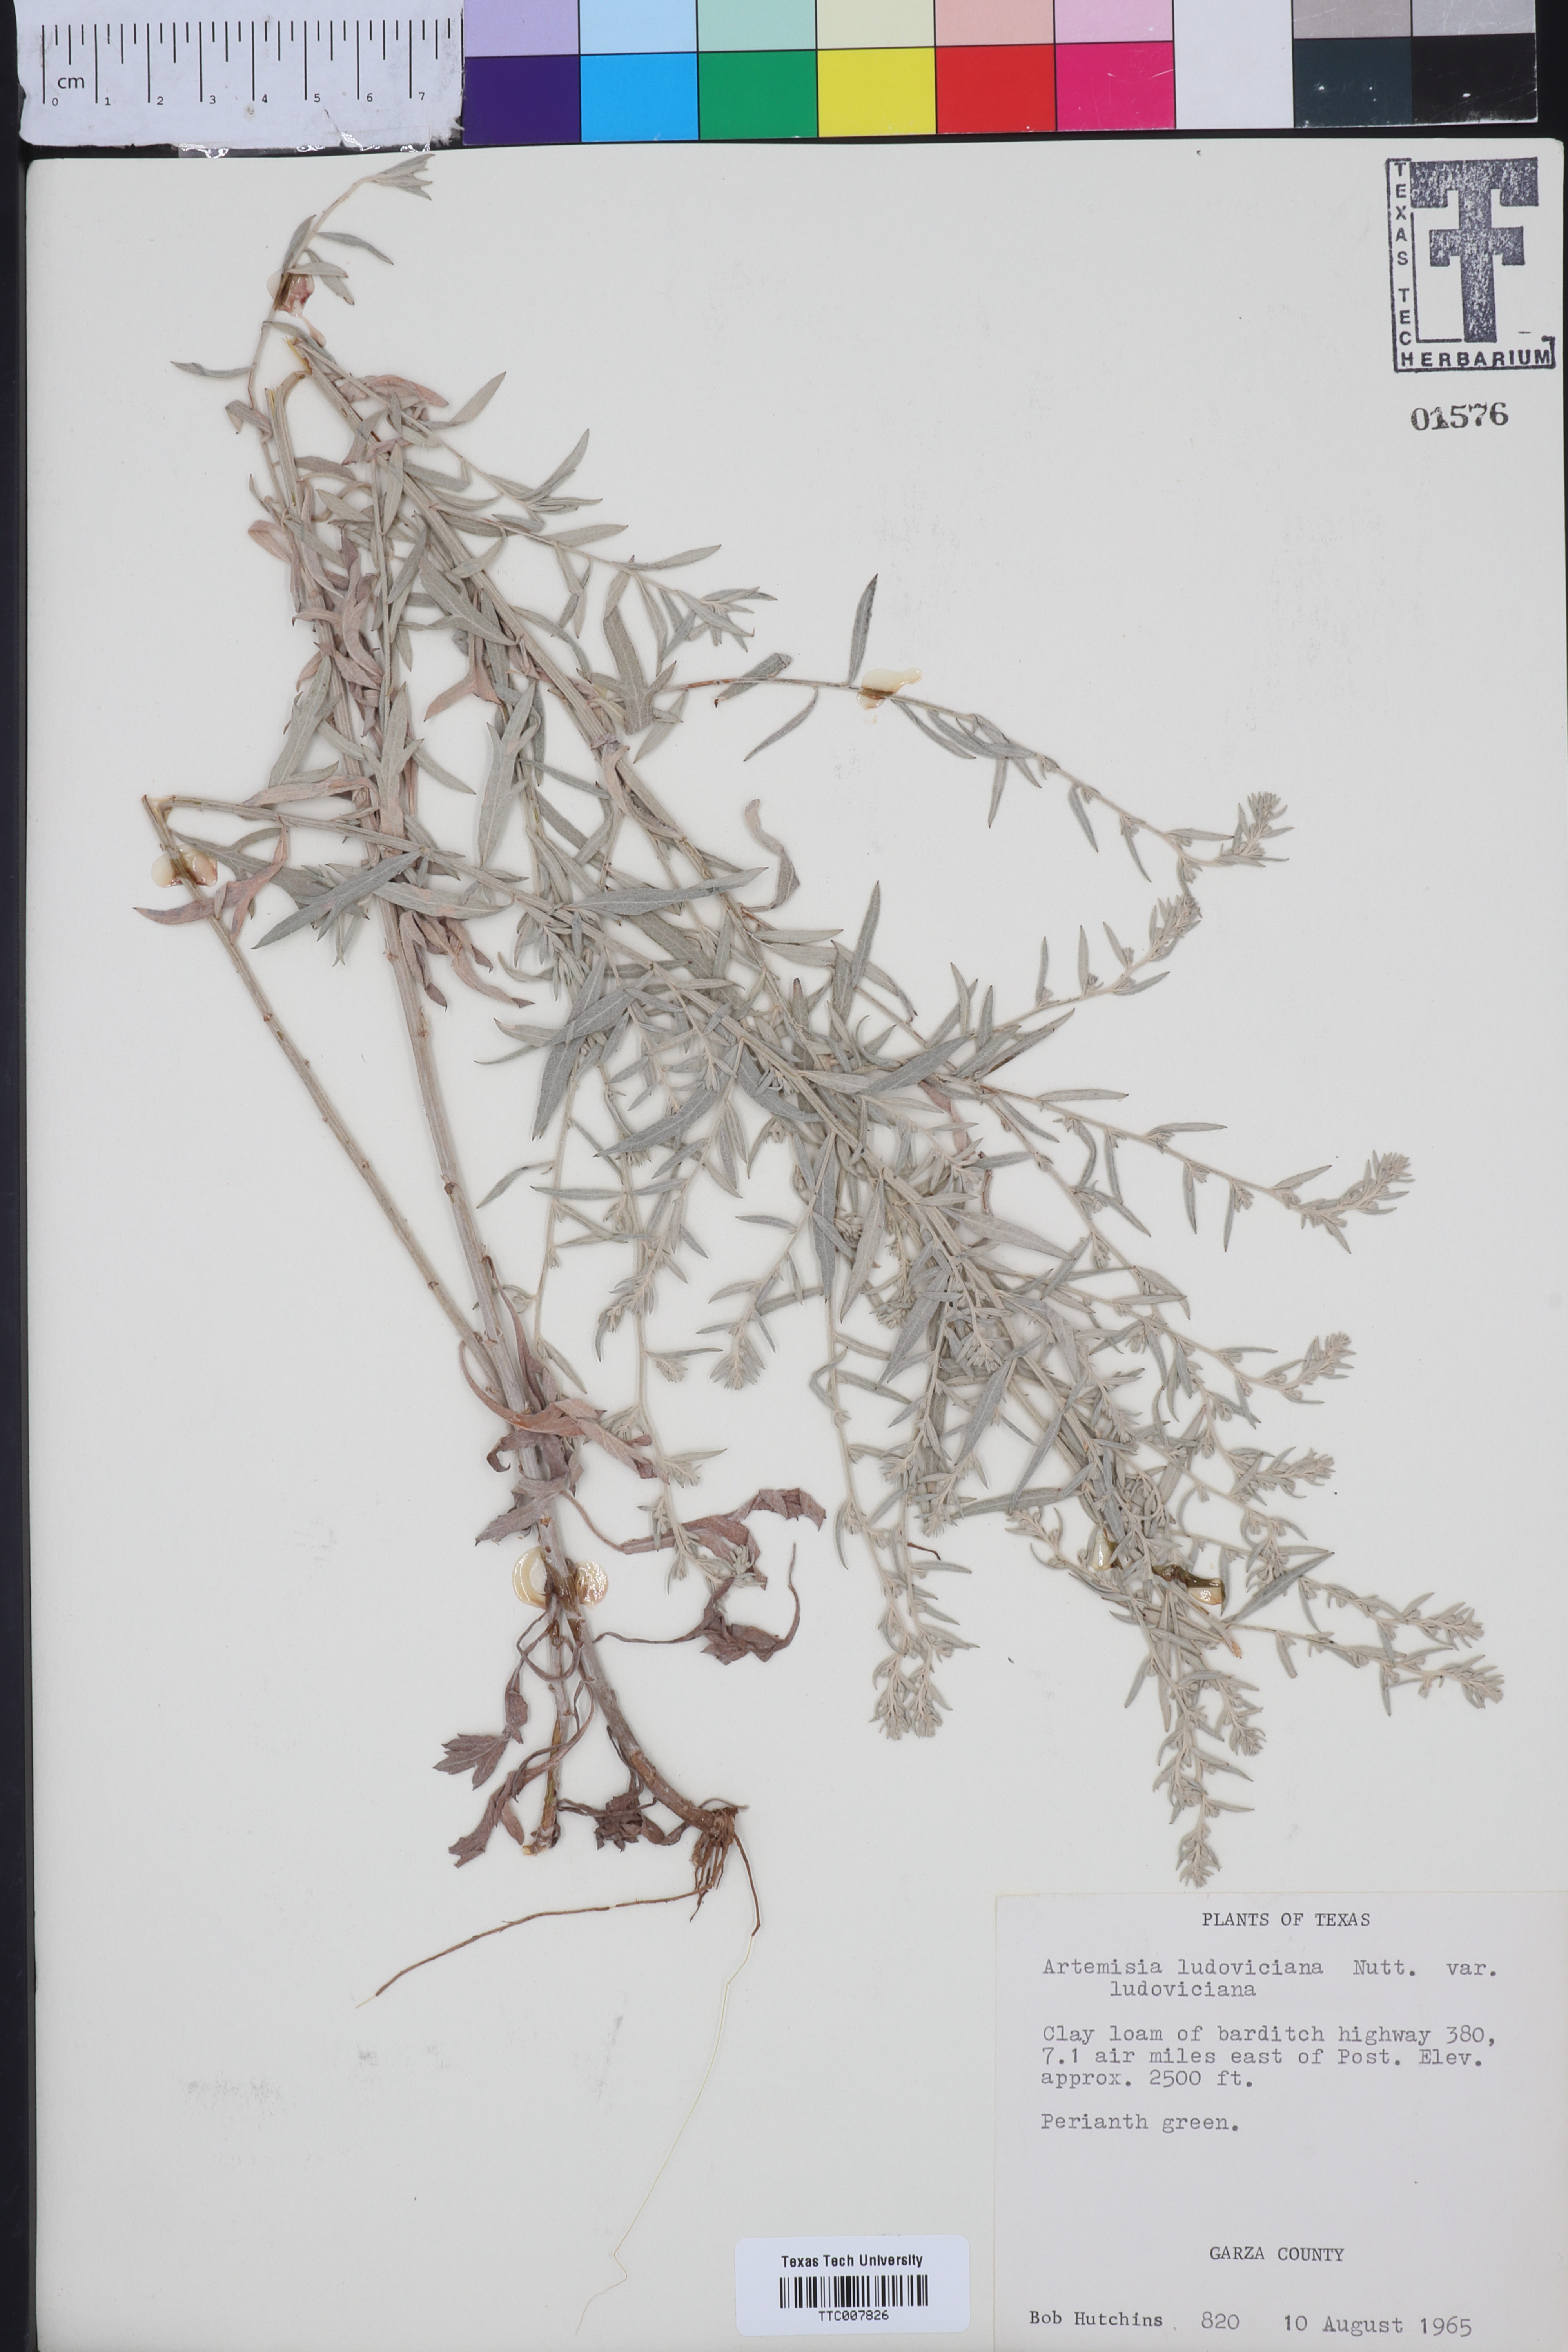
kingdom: Plantae
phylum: Tracheophyta
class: Magnoliopsida
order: Asterales
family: Asteraceae
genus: Artemisia
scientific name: Artemisia ludoviciana
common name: Western mugwort
